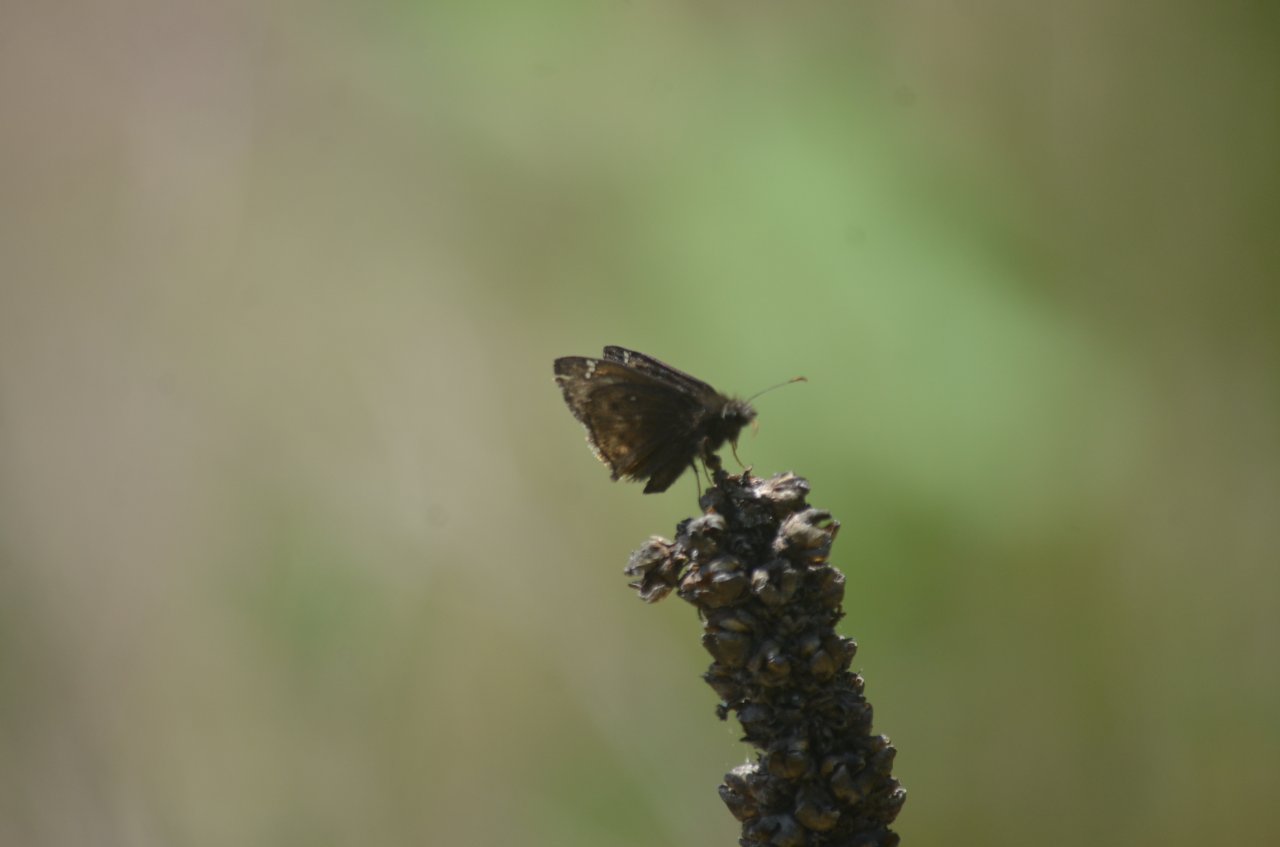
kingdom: Animalia
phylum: Arthropoda
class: Insecta
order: Lepidoptera
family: Hesperiidae
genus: Gesta
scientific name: Gesta
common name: Wild Indigo Duskywing
